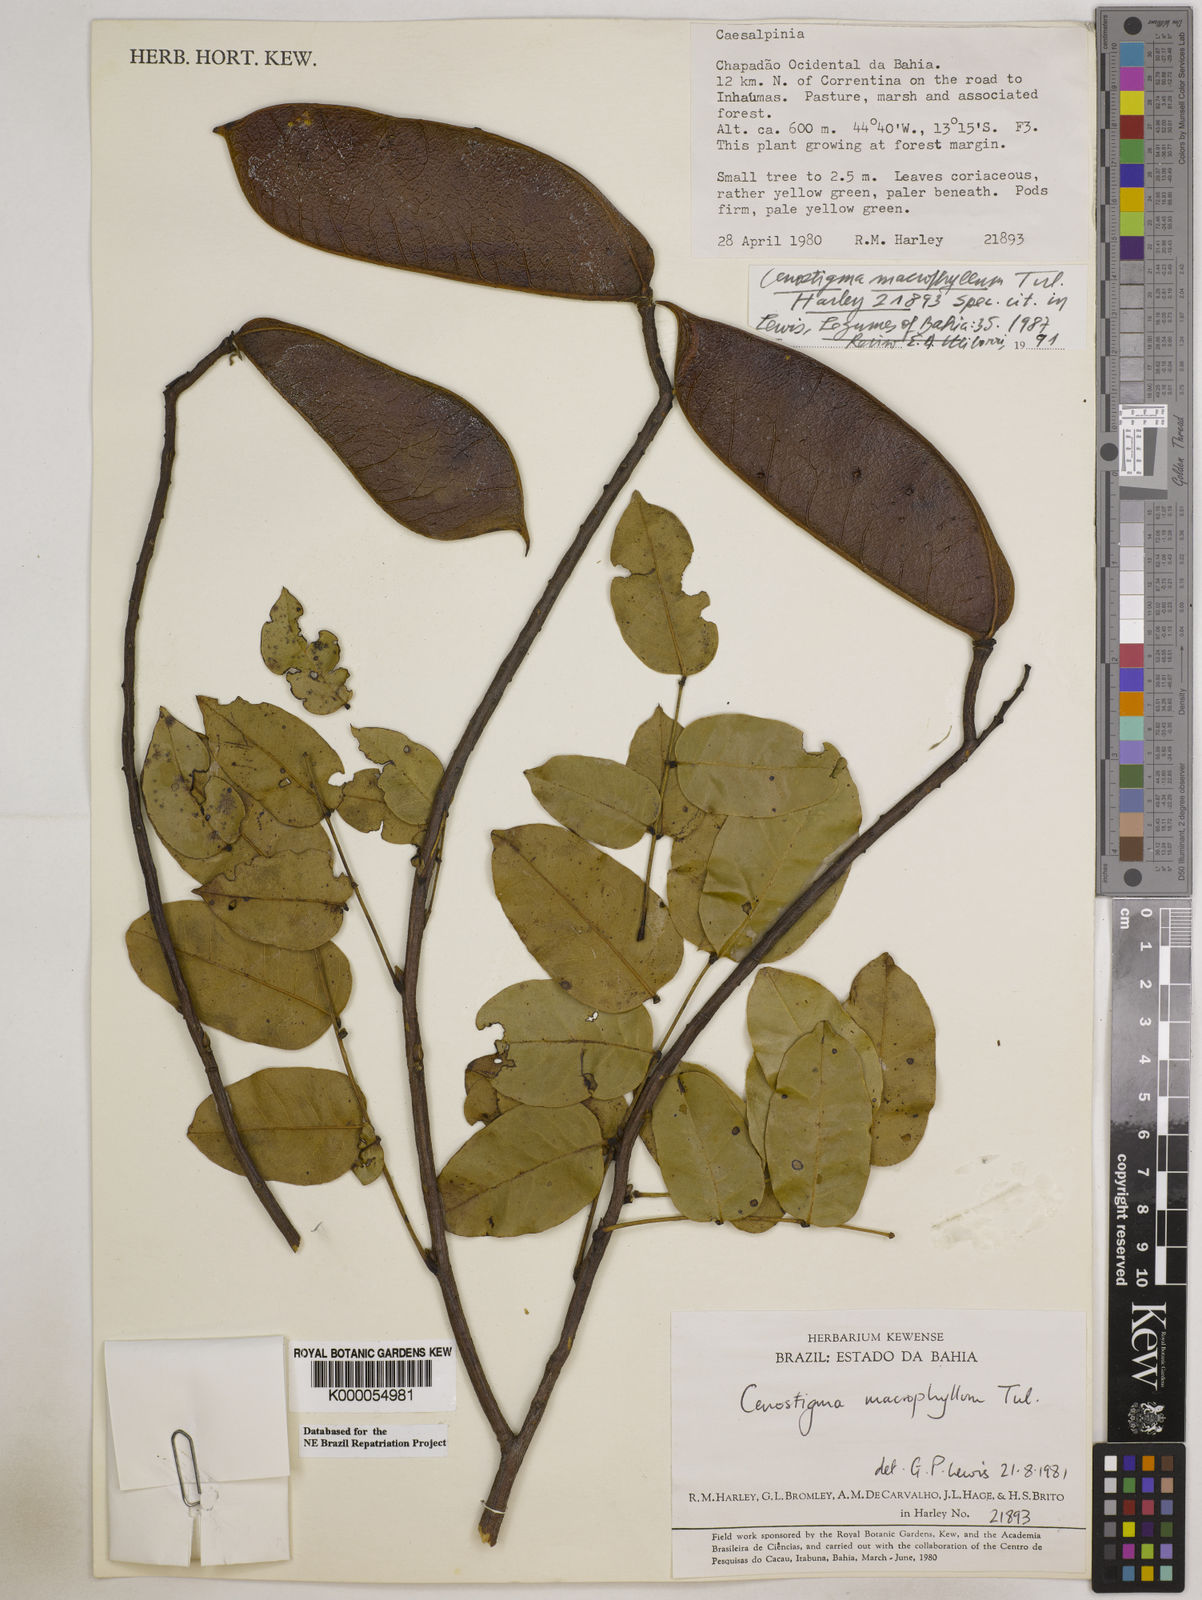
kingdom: Plantae
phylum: Tracheophyta
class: Magnoliopsida
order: Fabales
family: Fabaceae
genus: Cenostigma
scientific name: Cenostigma macrophyllum
